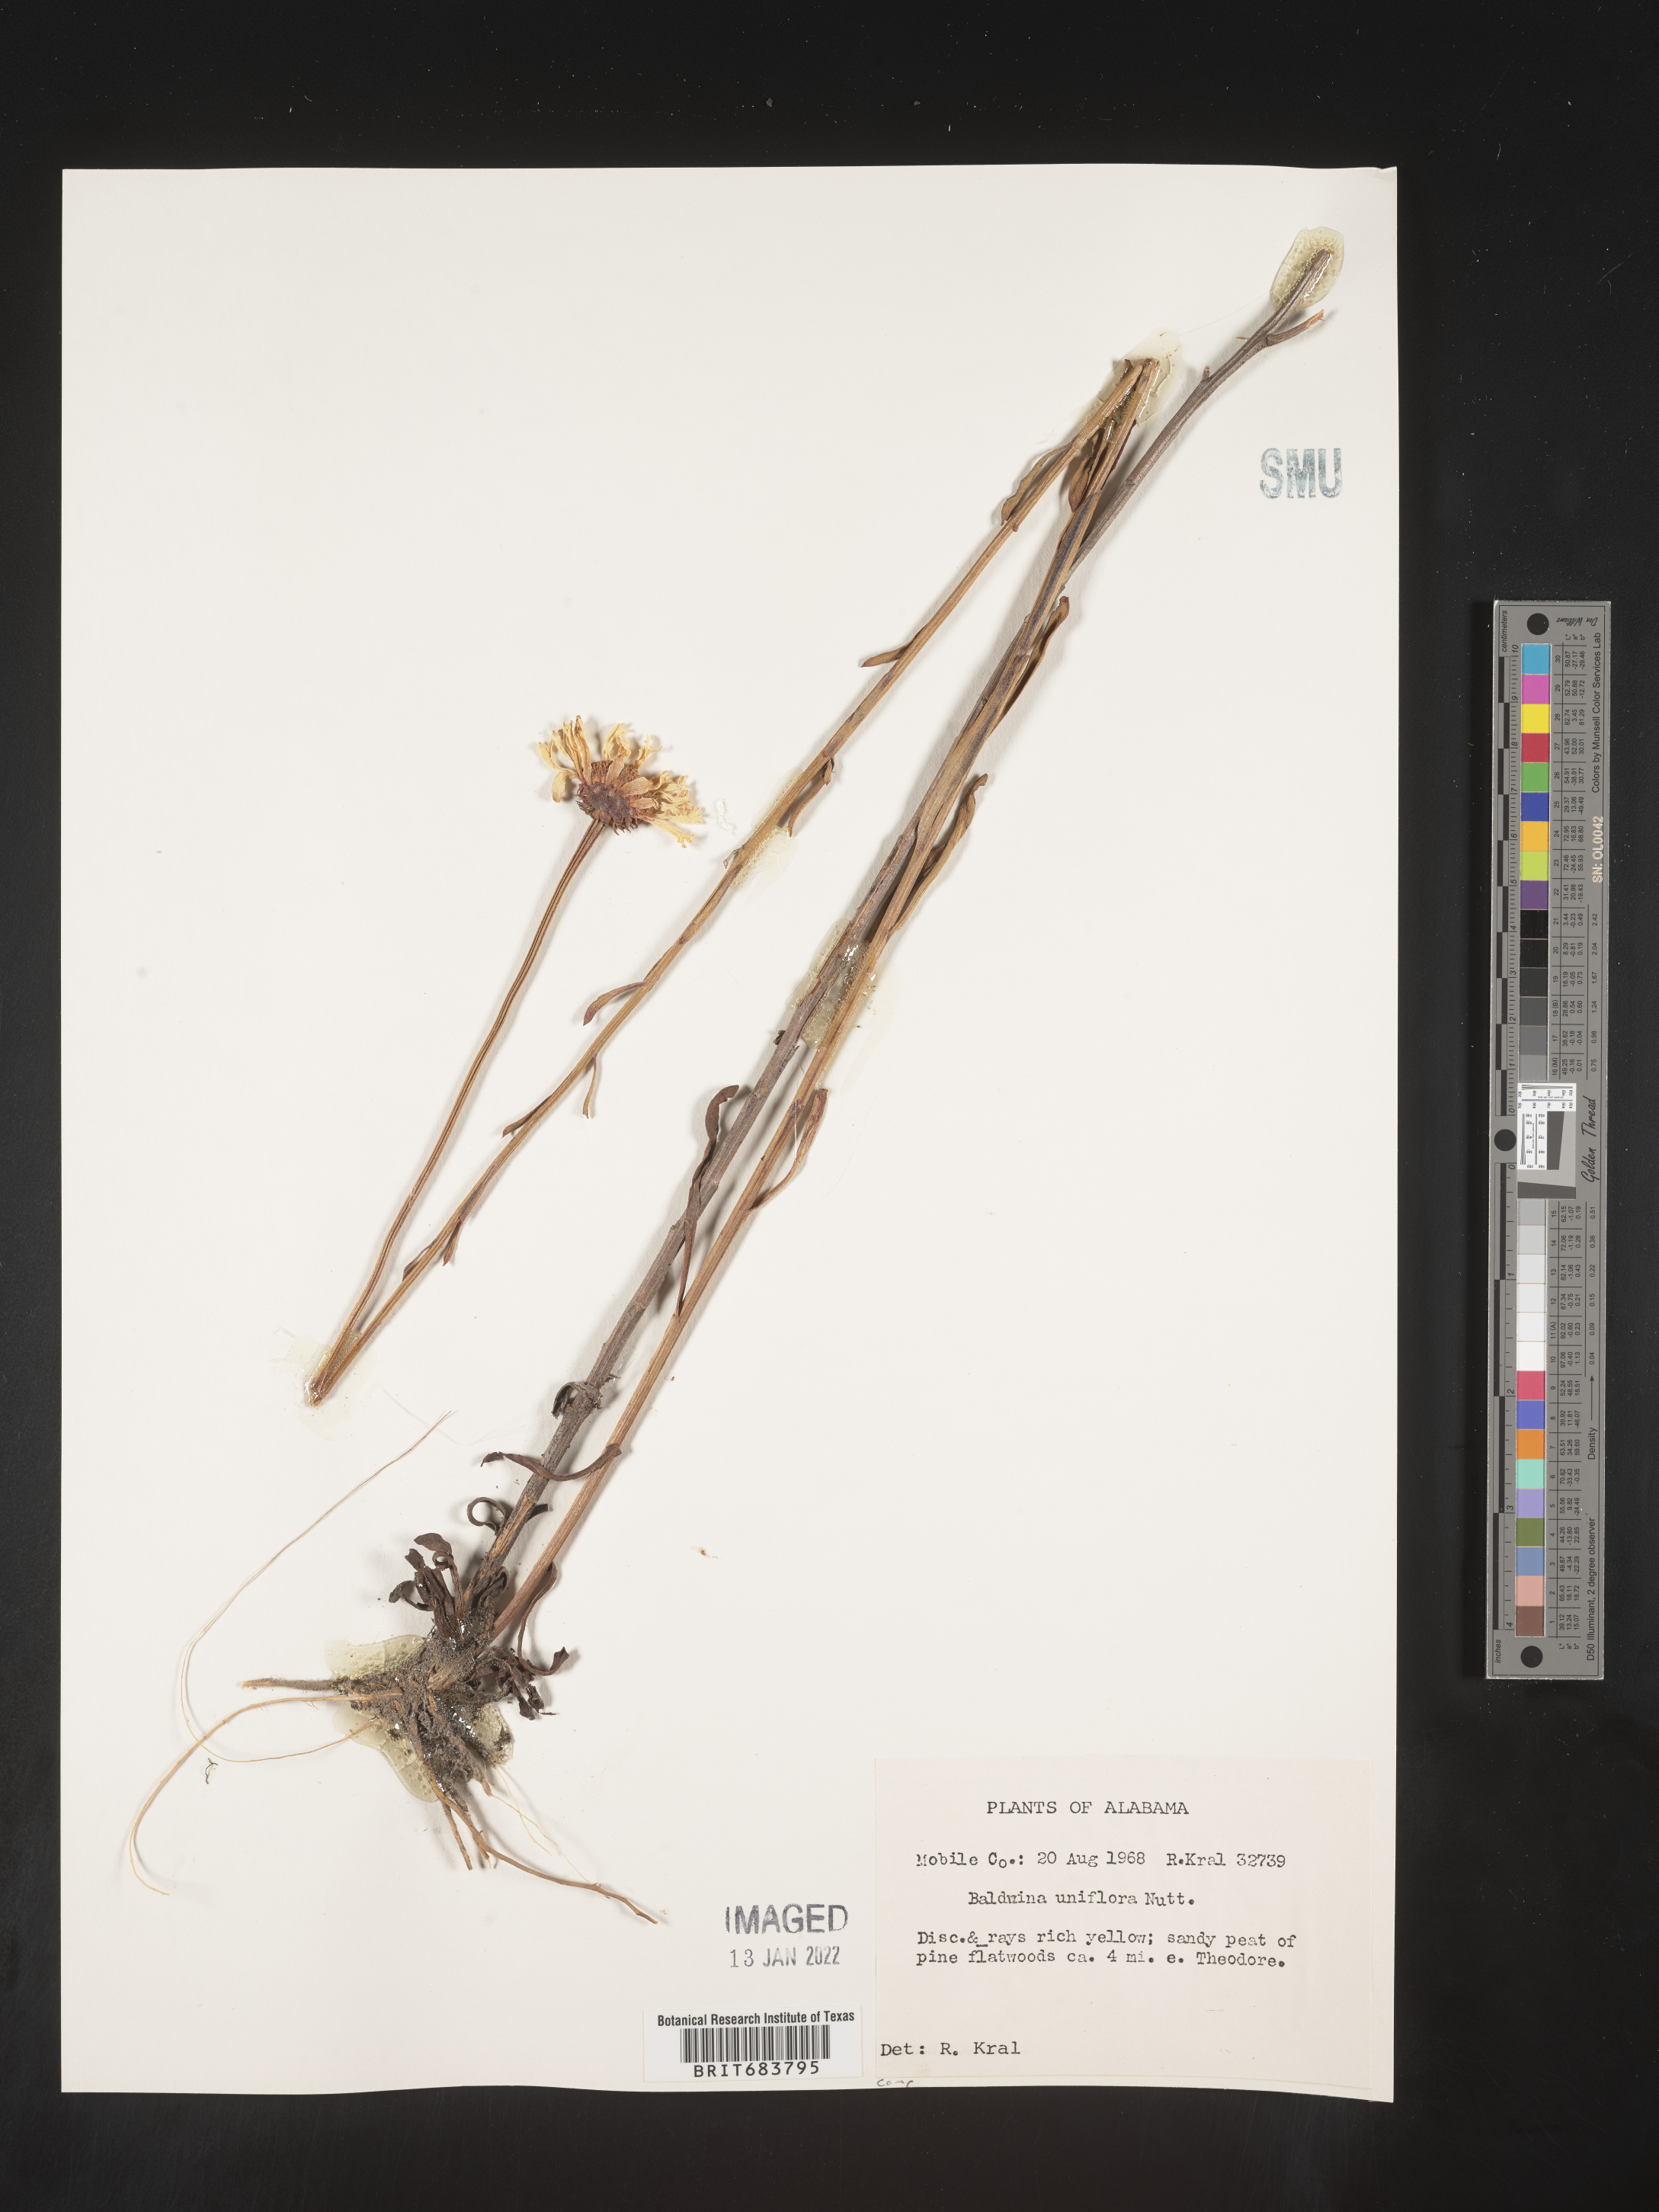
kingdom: Plantae
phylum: Tracheophyta
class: Magnoliopsida
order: Asterales
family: Asteraceae
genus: Balduina
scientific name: Balduina uniflora
